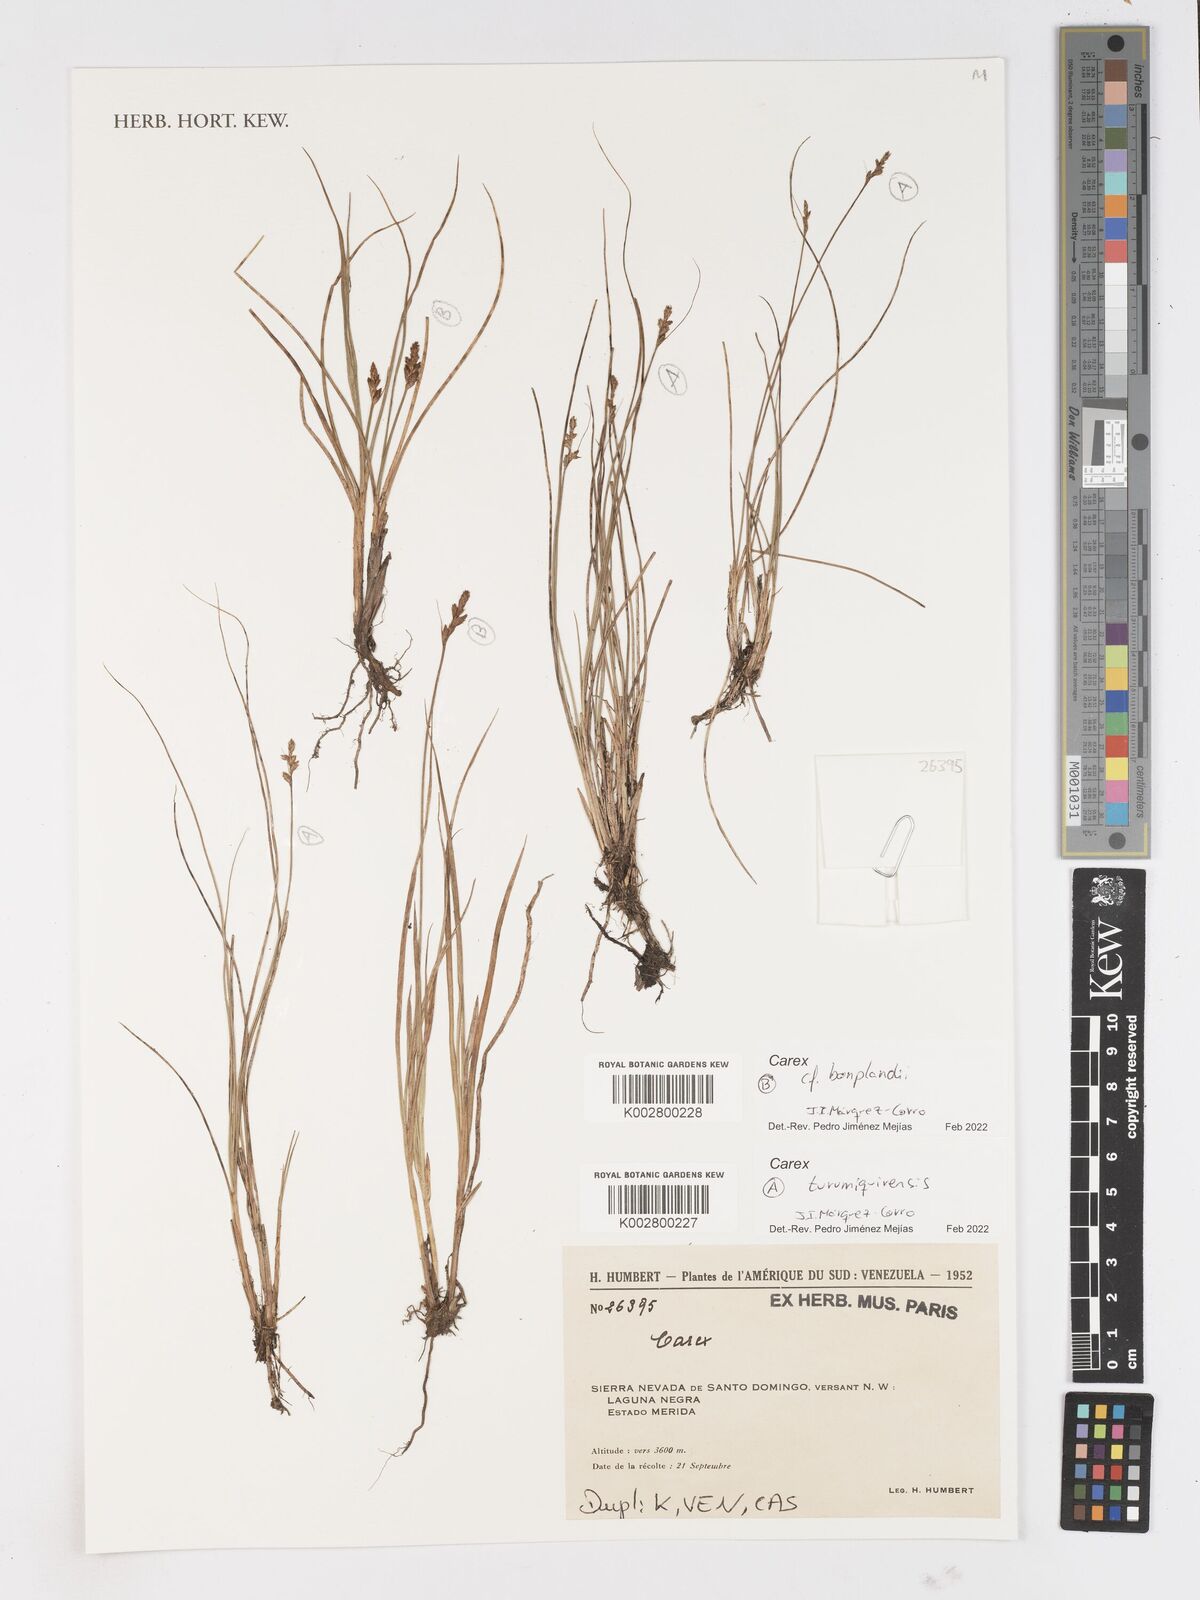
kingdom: Plantae
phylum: Tracheophyta
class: Liliopsida
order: Poales
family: Cyperaceae
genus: Carex
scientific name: Carex turumiquirensis
